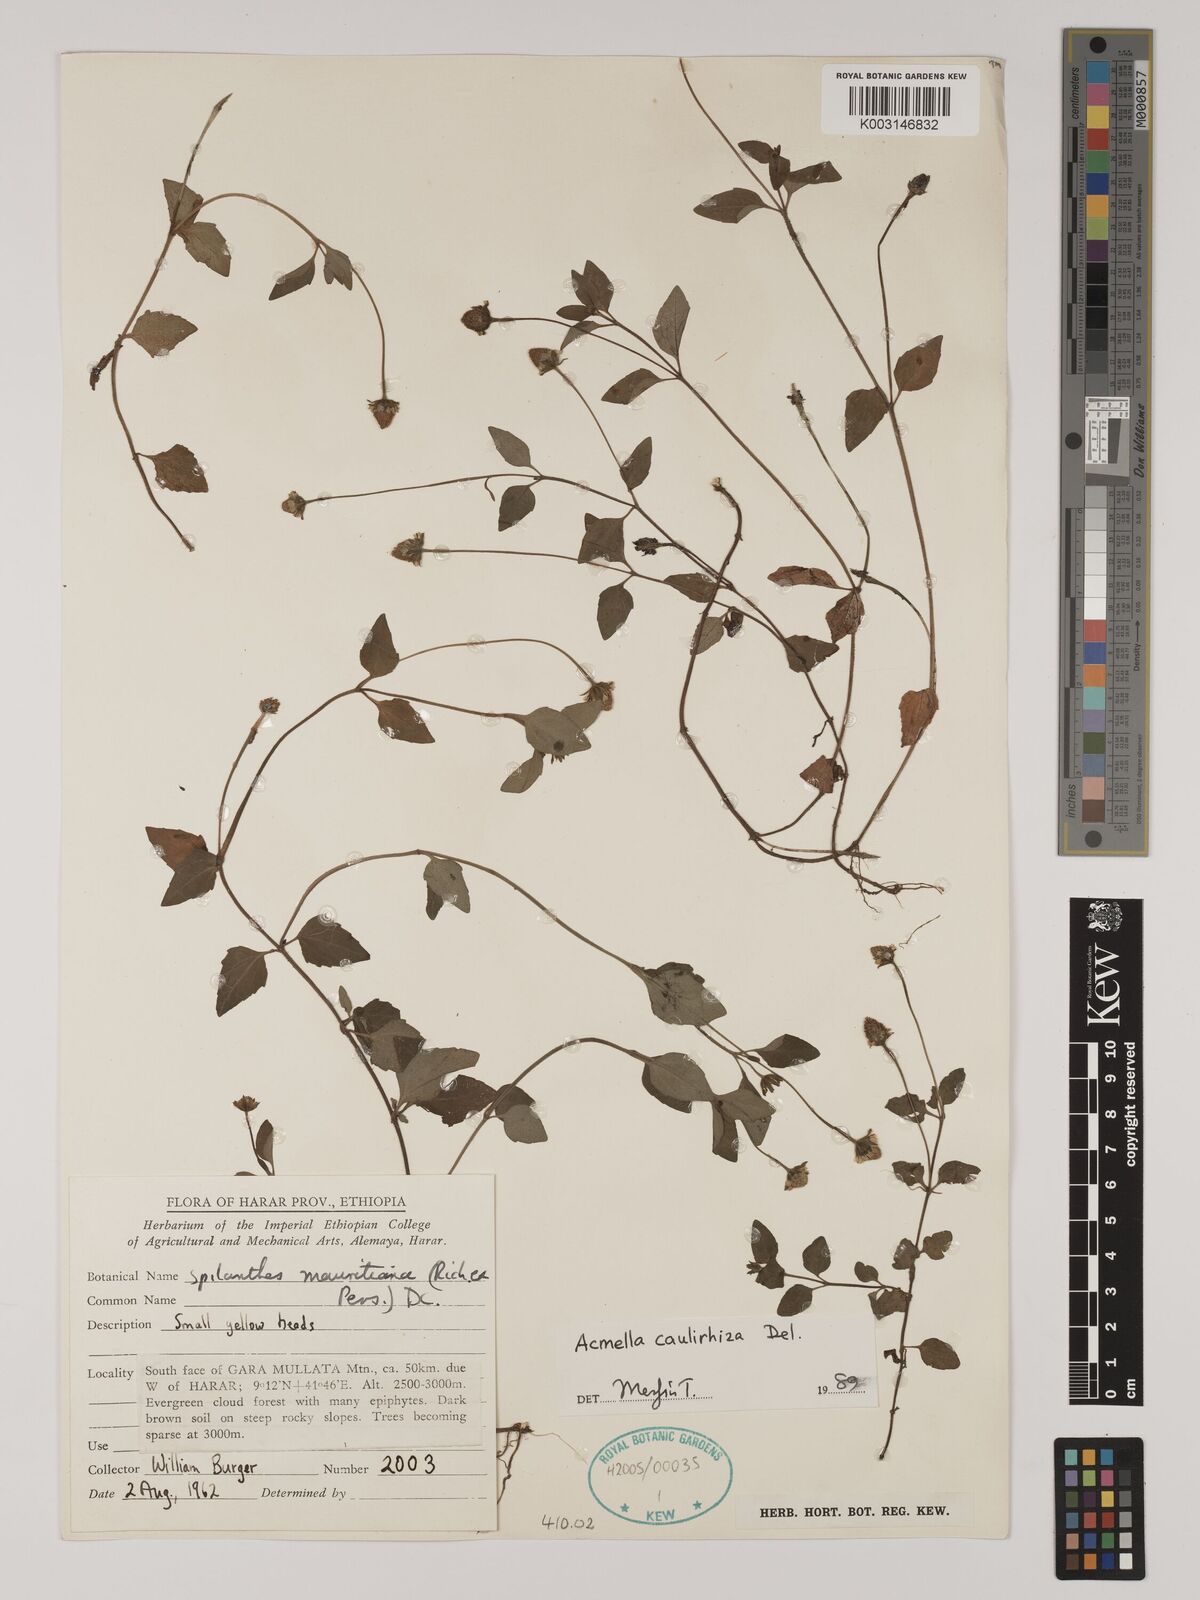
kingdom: Plantae
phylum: Tracheophyta
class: Magnoliopsida
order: Asterales
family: Asteraceae
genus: Acmella
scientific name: Acmella caulirhiza
